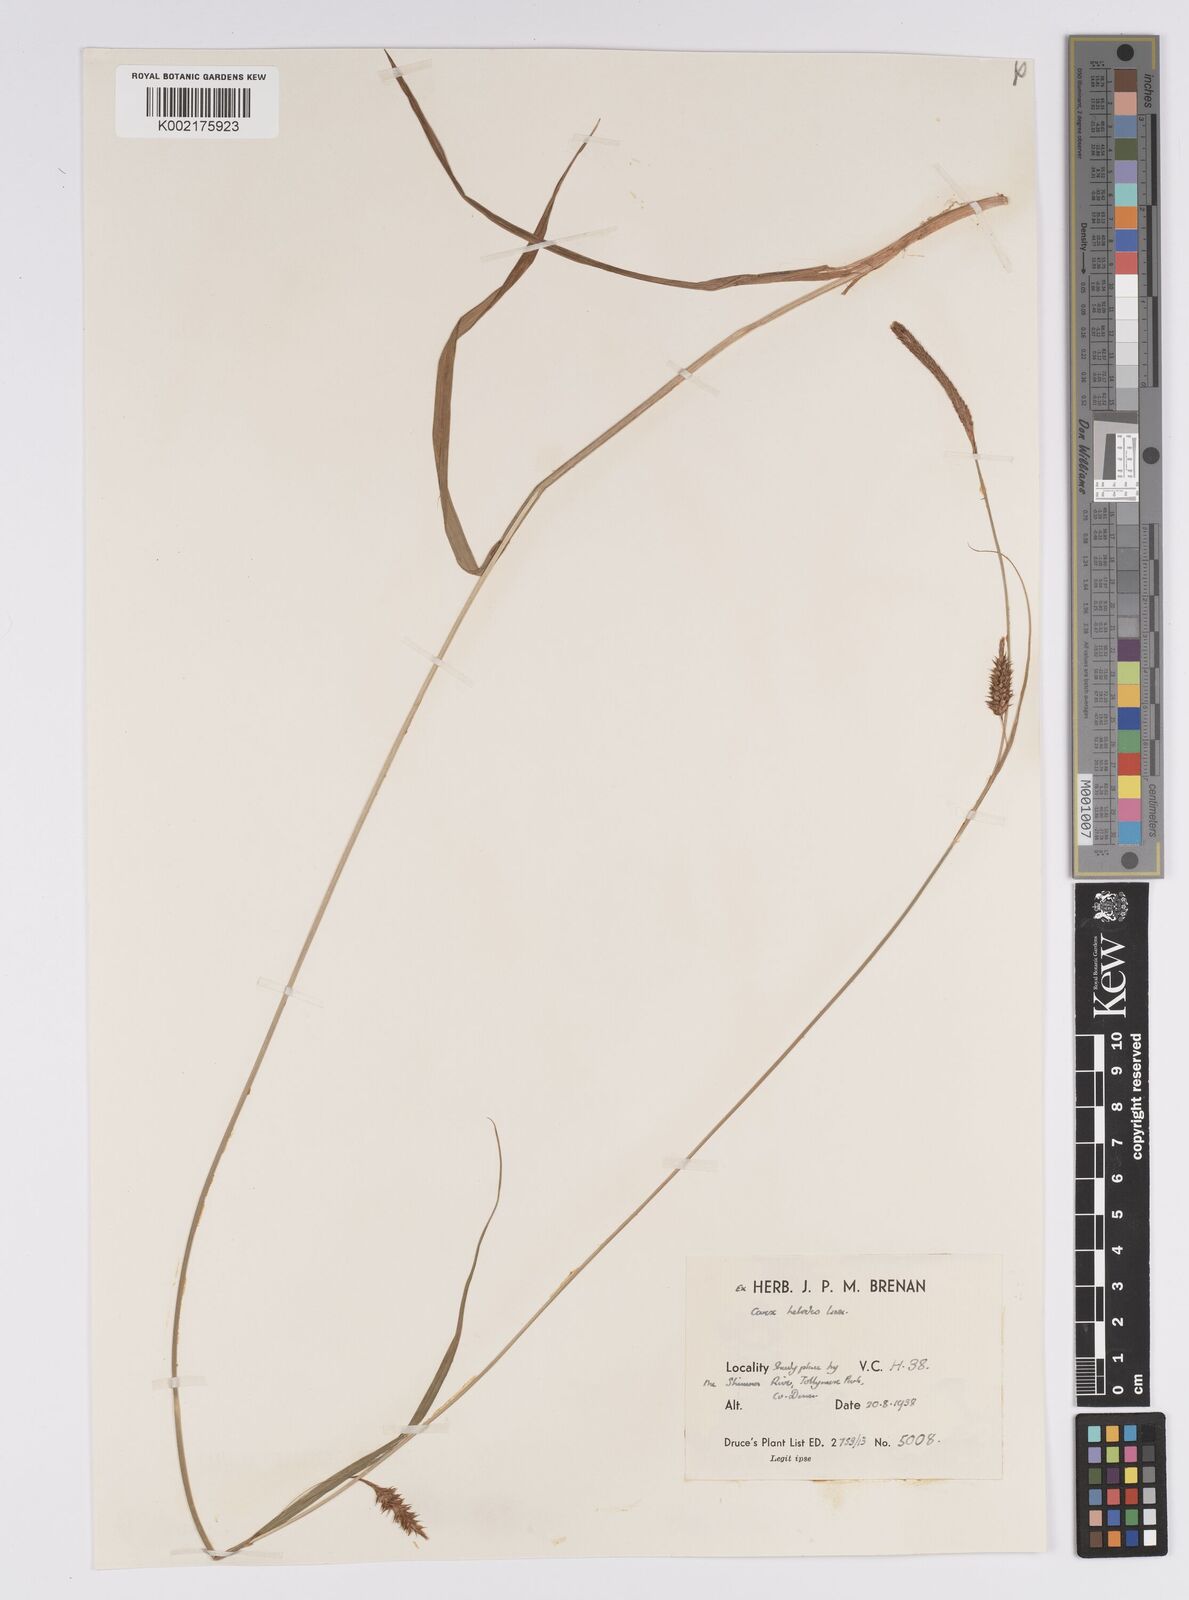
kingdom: Plantae
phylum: Tracheophyta
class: Liliopsida
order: Poales
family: Cyperaceae
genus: Carex
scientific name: Carex laevigata
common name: Smooth-stalked sedge
